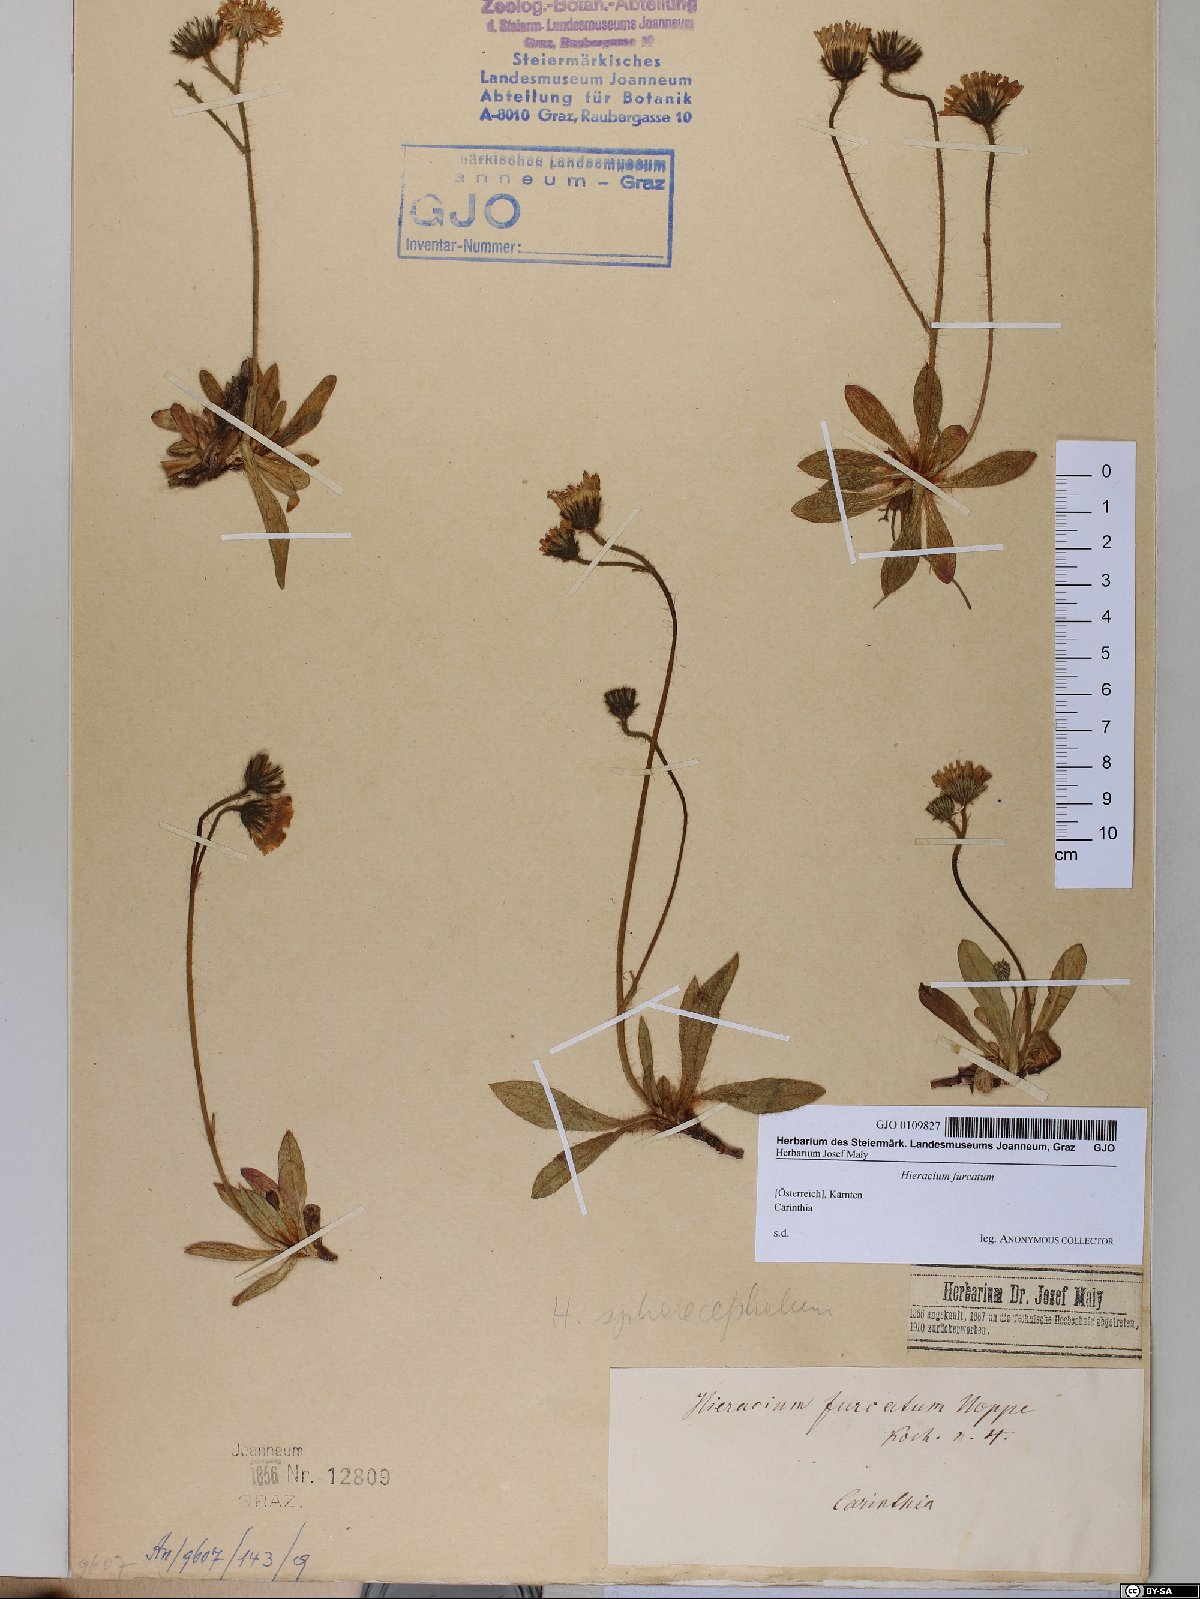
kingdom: Plantae
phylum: Tracheophyta
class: Magnoliopsida
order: Asterales
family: Asteraceae
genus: Pilosella
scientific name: Pilosella sphaerocephala
